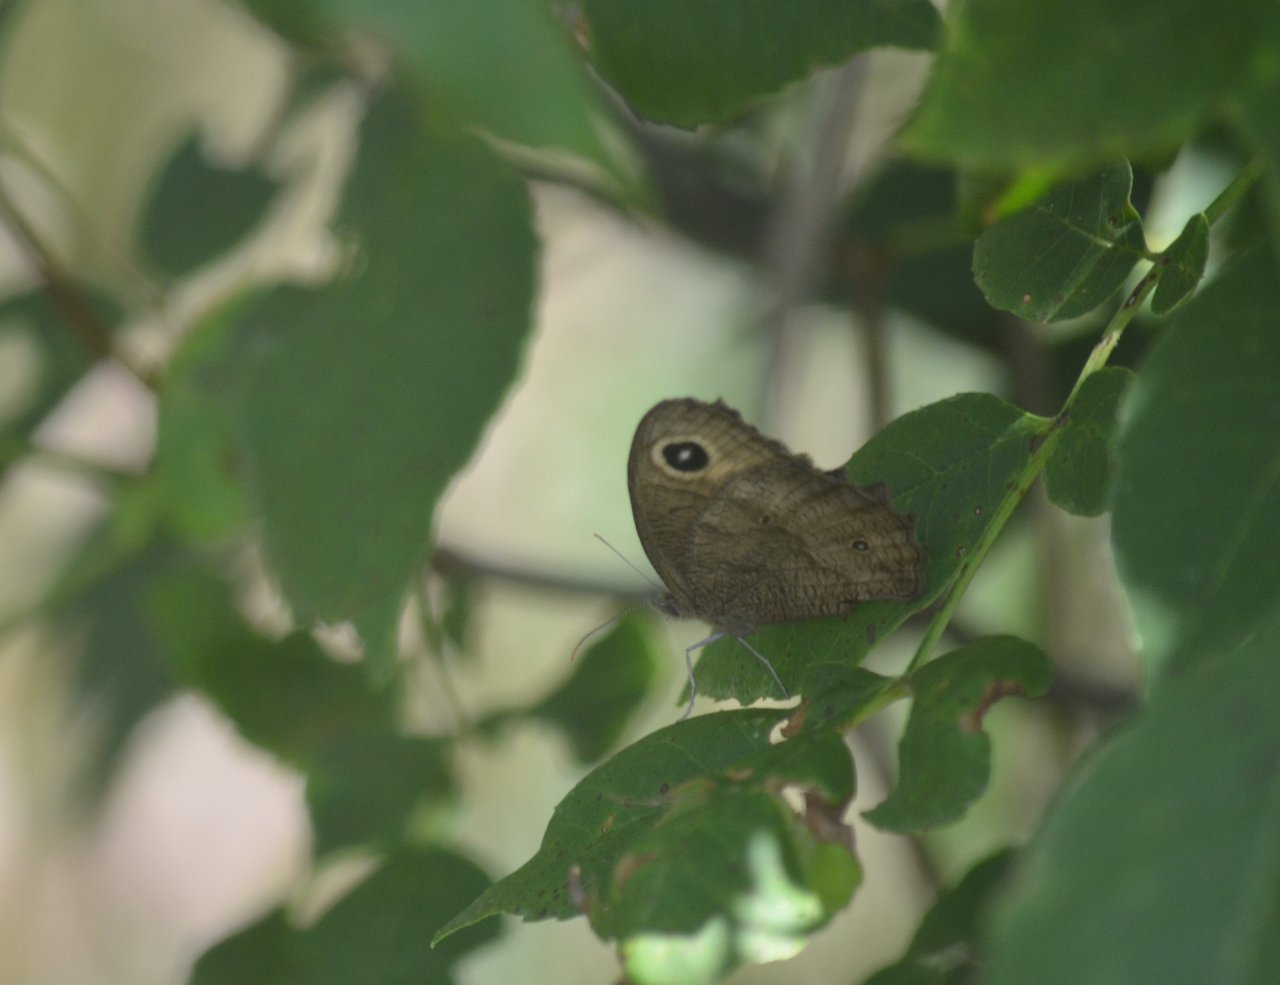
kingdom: Animalia
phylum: Arthropoda
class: Insecta
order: Lepidoptera
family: Nymphalidae
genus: Cercyonis
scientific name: Cercyonis pegala
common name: Common Wood-Nymph
